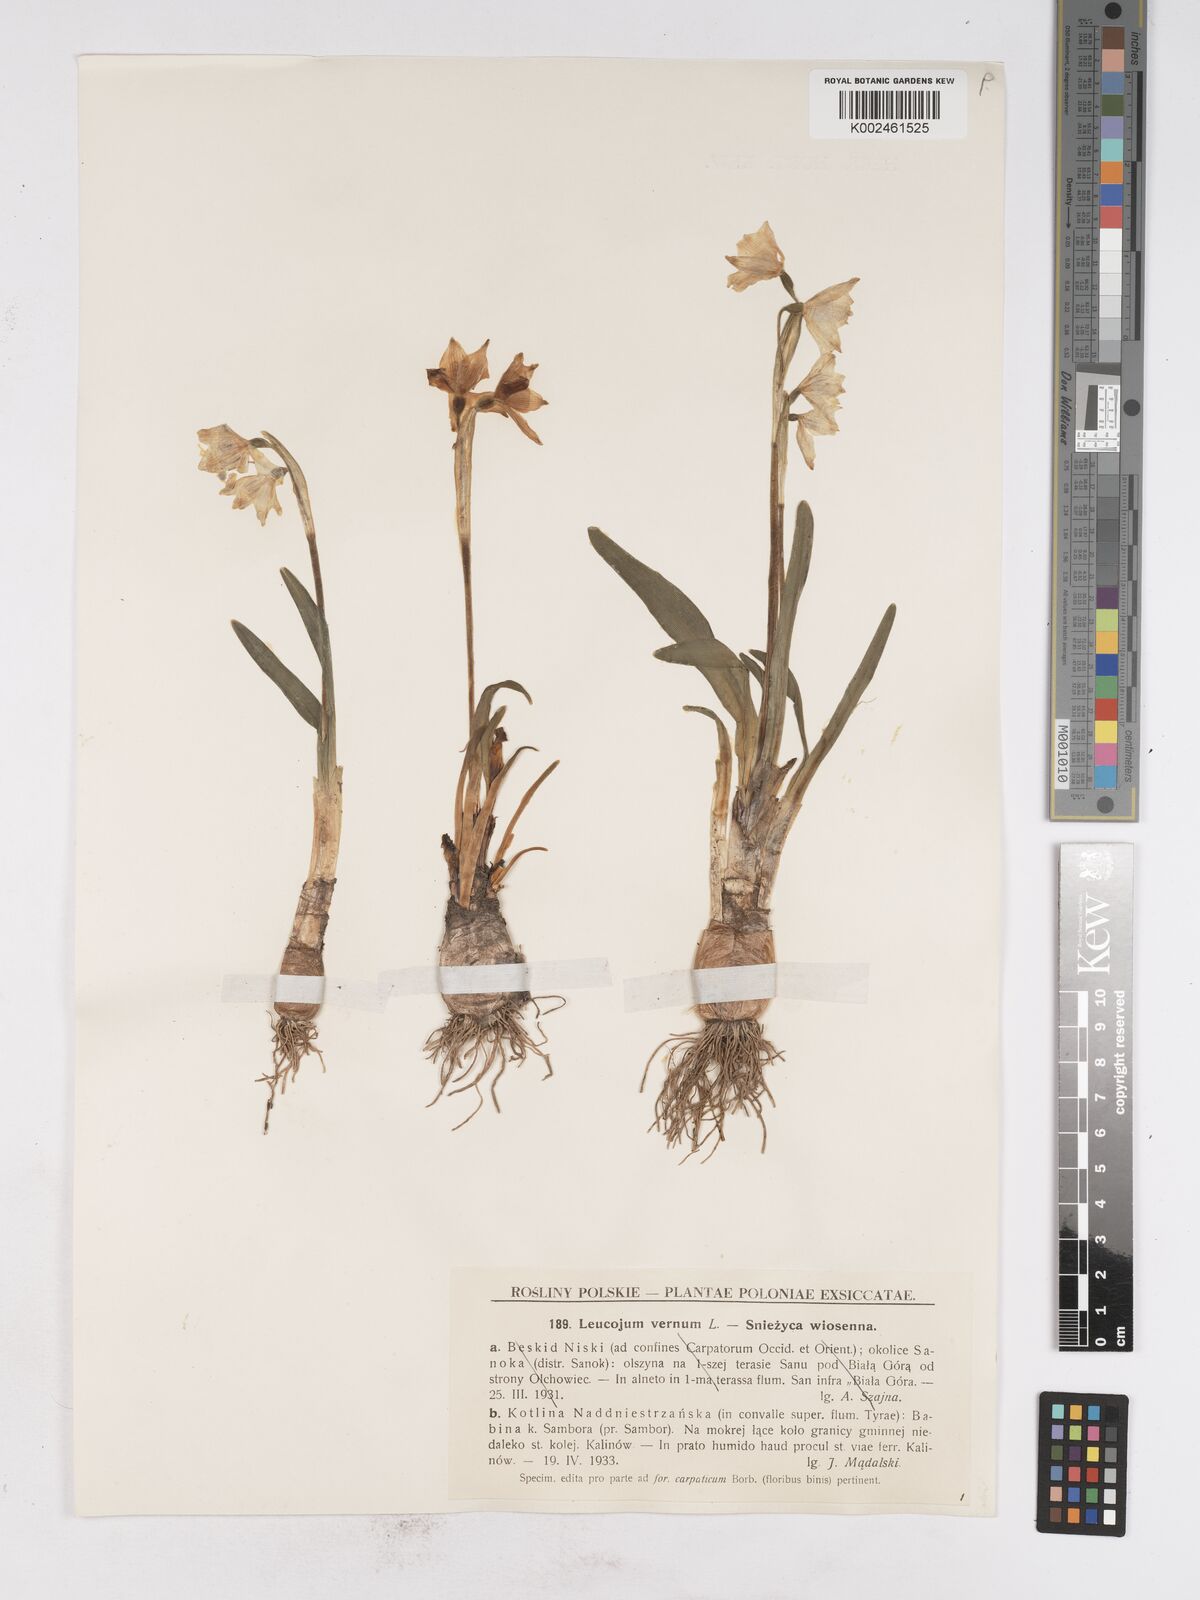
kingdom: Plantae
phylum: Tracheophyta
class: Liliopsida
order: Asparagales
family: Amaryllidaceae
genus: Leucojum
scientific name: Leucojum vernum
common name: Spring snowflake
